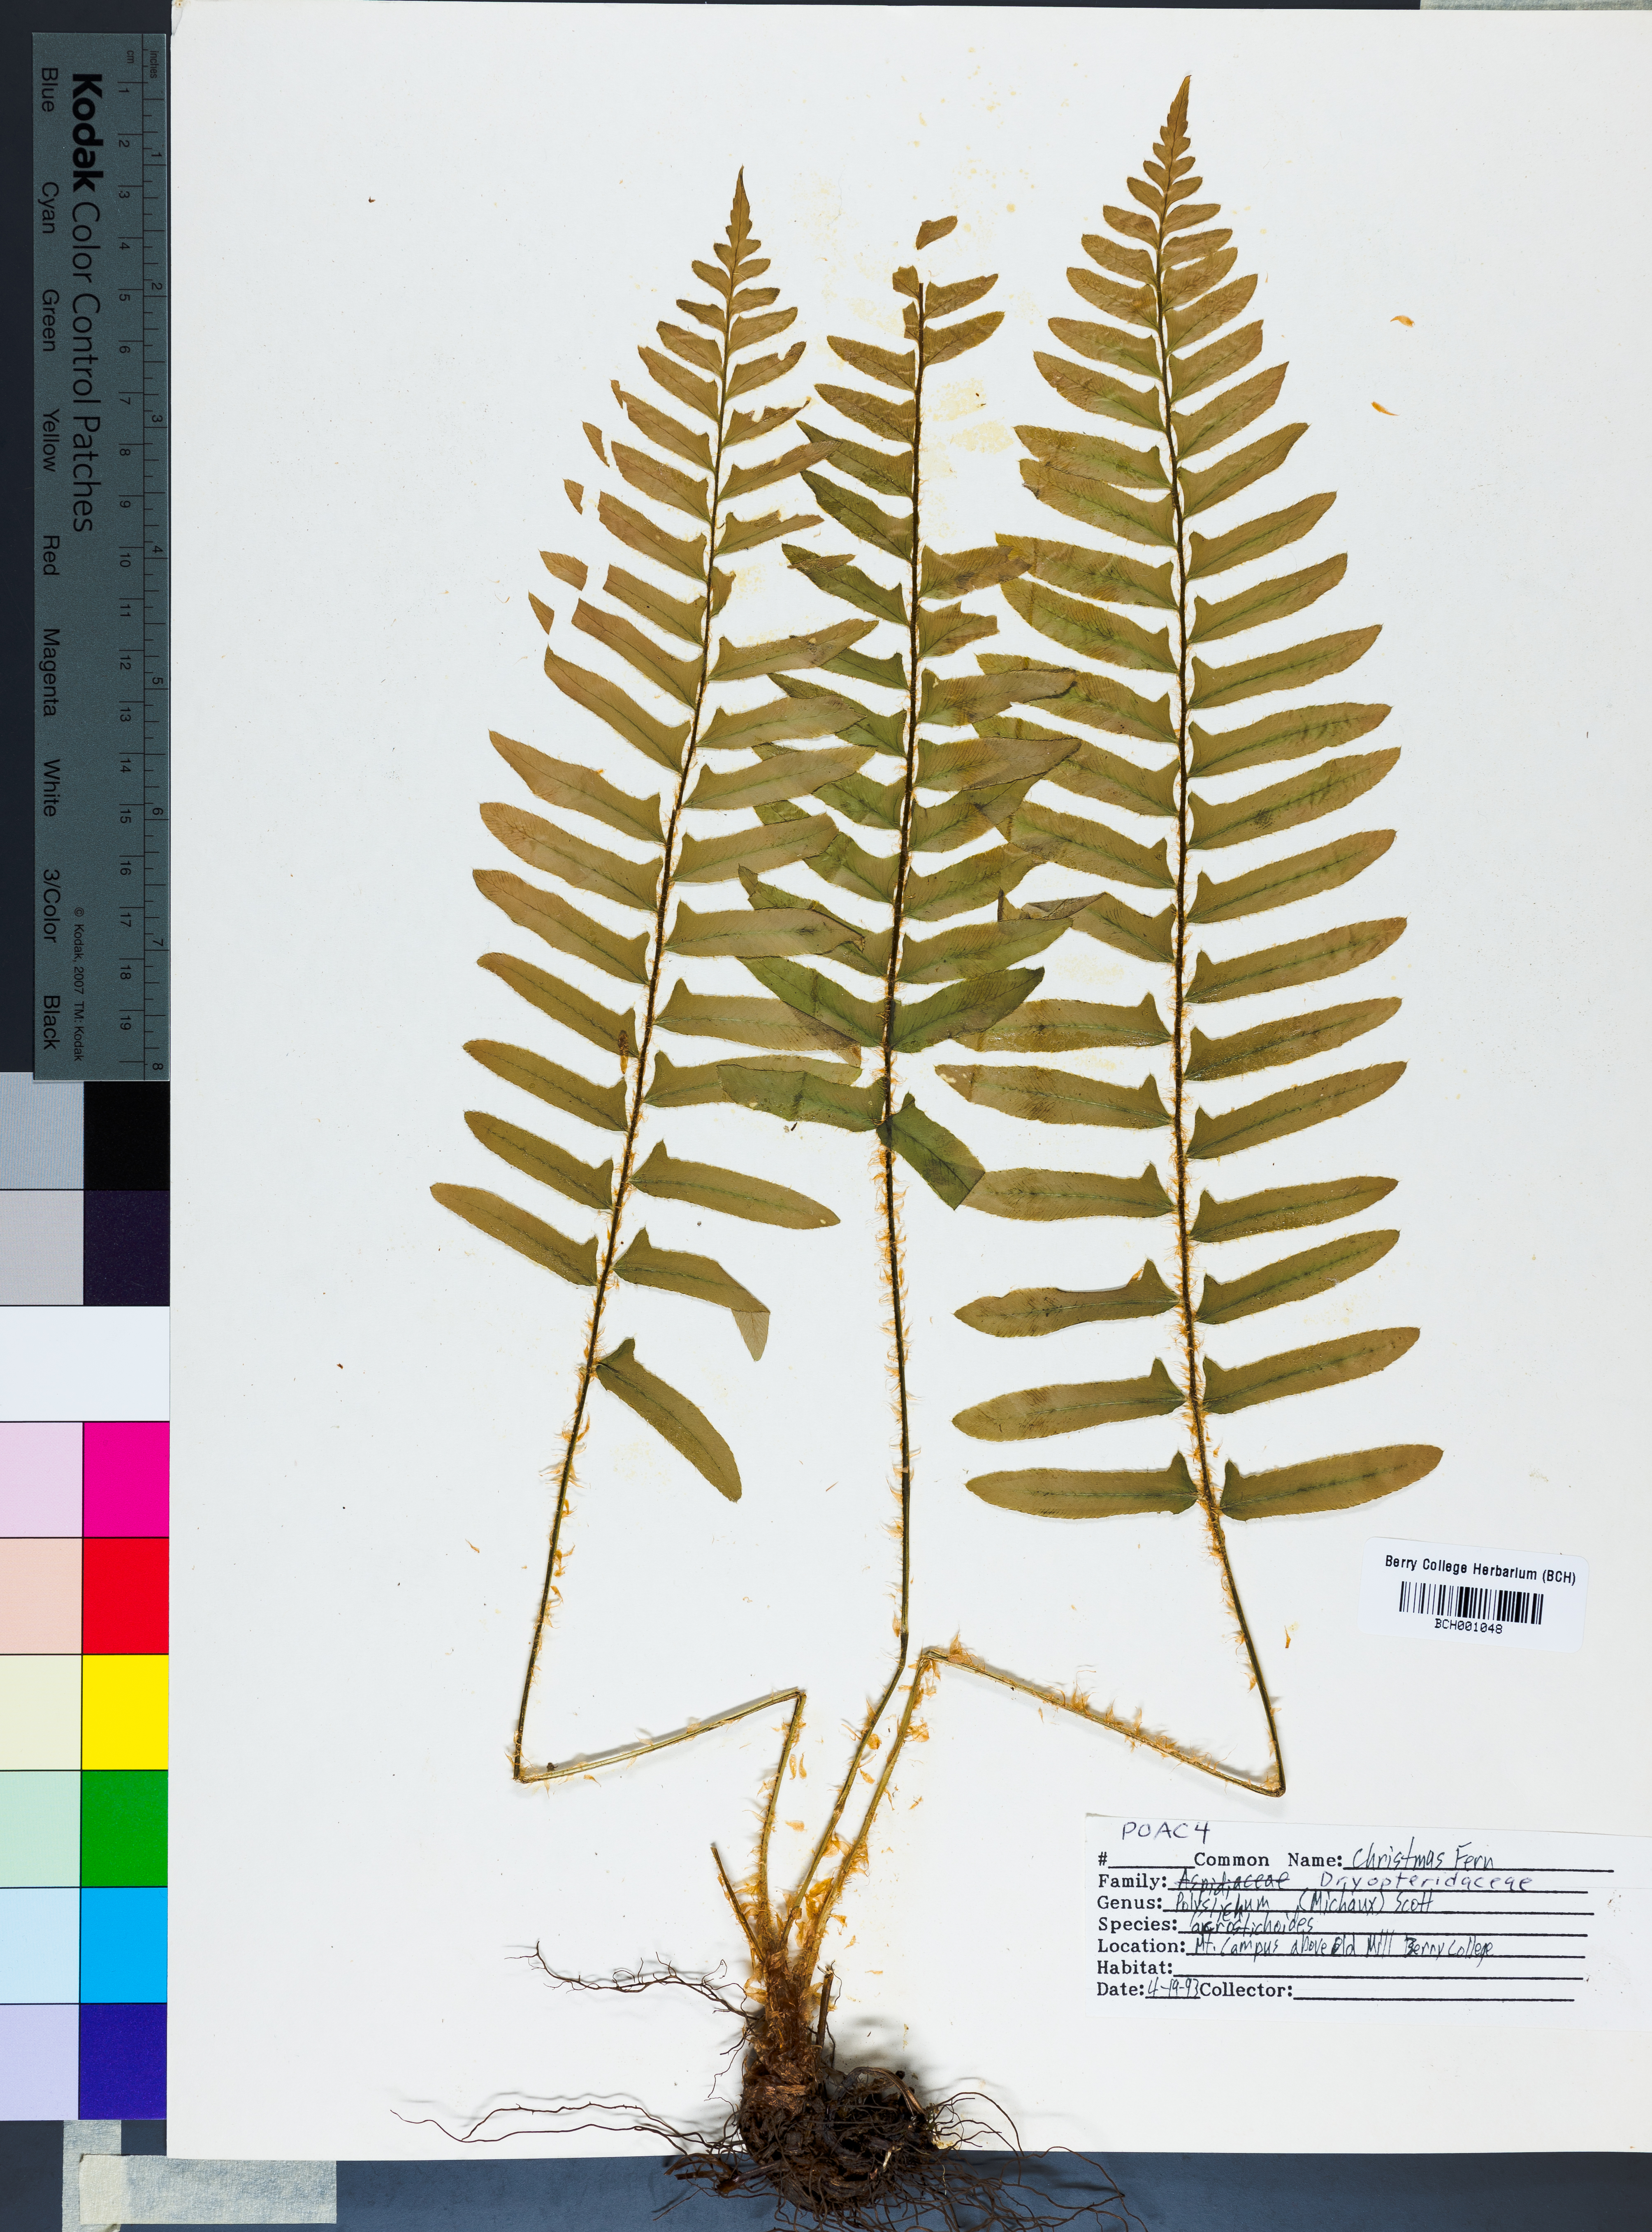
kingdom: Plantae
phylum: Tracheophyta
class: Polypodiopsida
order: Polypodiales
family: Dryopteridaceae
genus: Polystichum
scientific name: Polystichum acrostichoides
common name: Christmas fern
